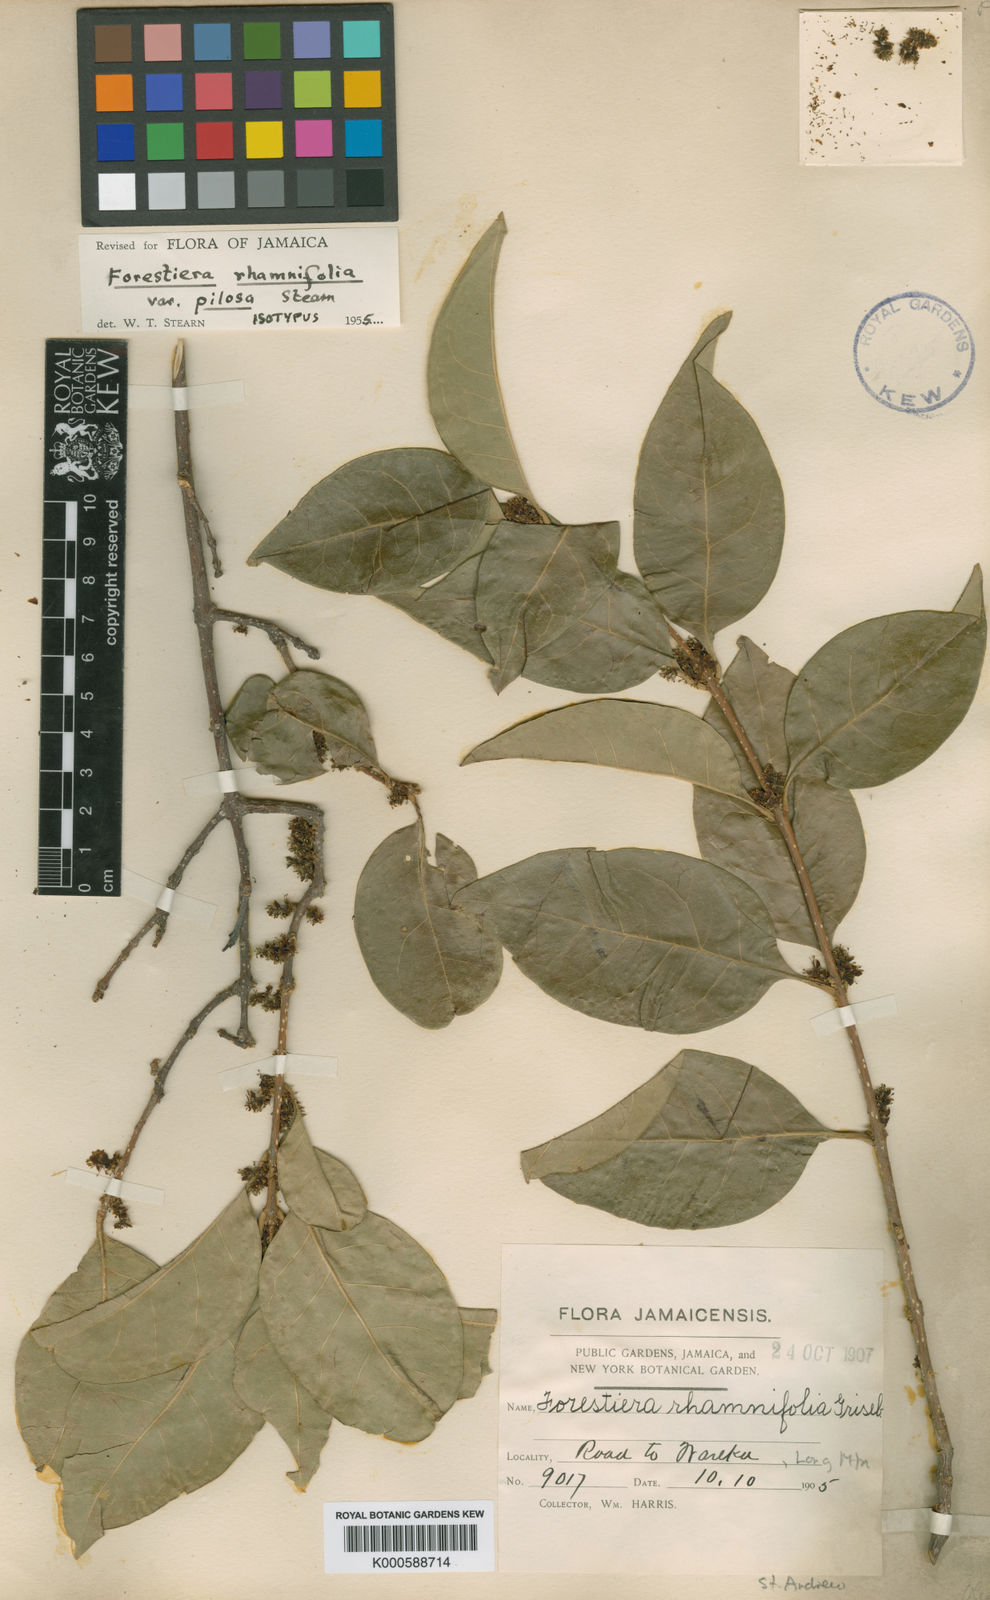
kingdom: Plantae
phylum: Tracheophyta
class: Magnoliopsida
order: Lamiales
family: Oleaceae
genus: Forestiera
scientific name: Forestiera rhamnifolia
